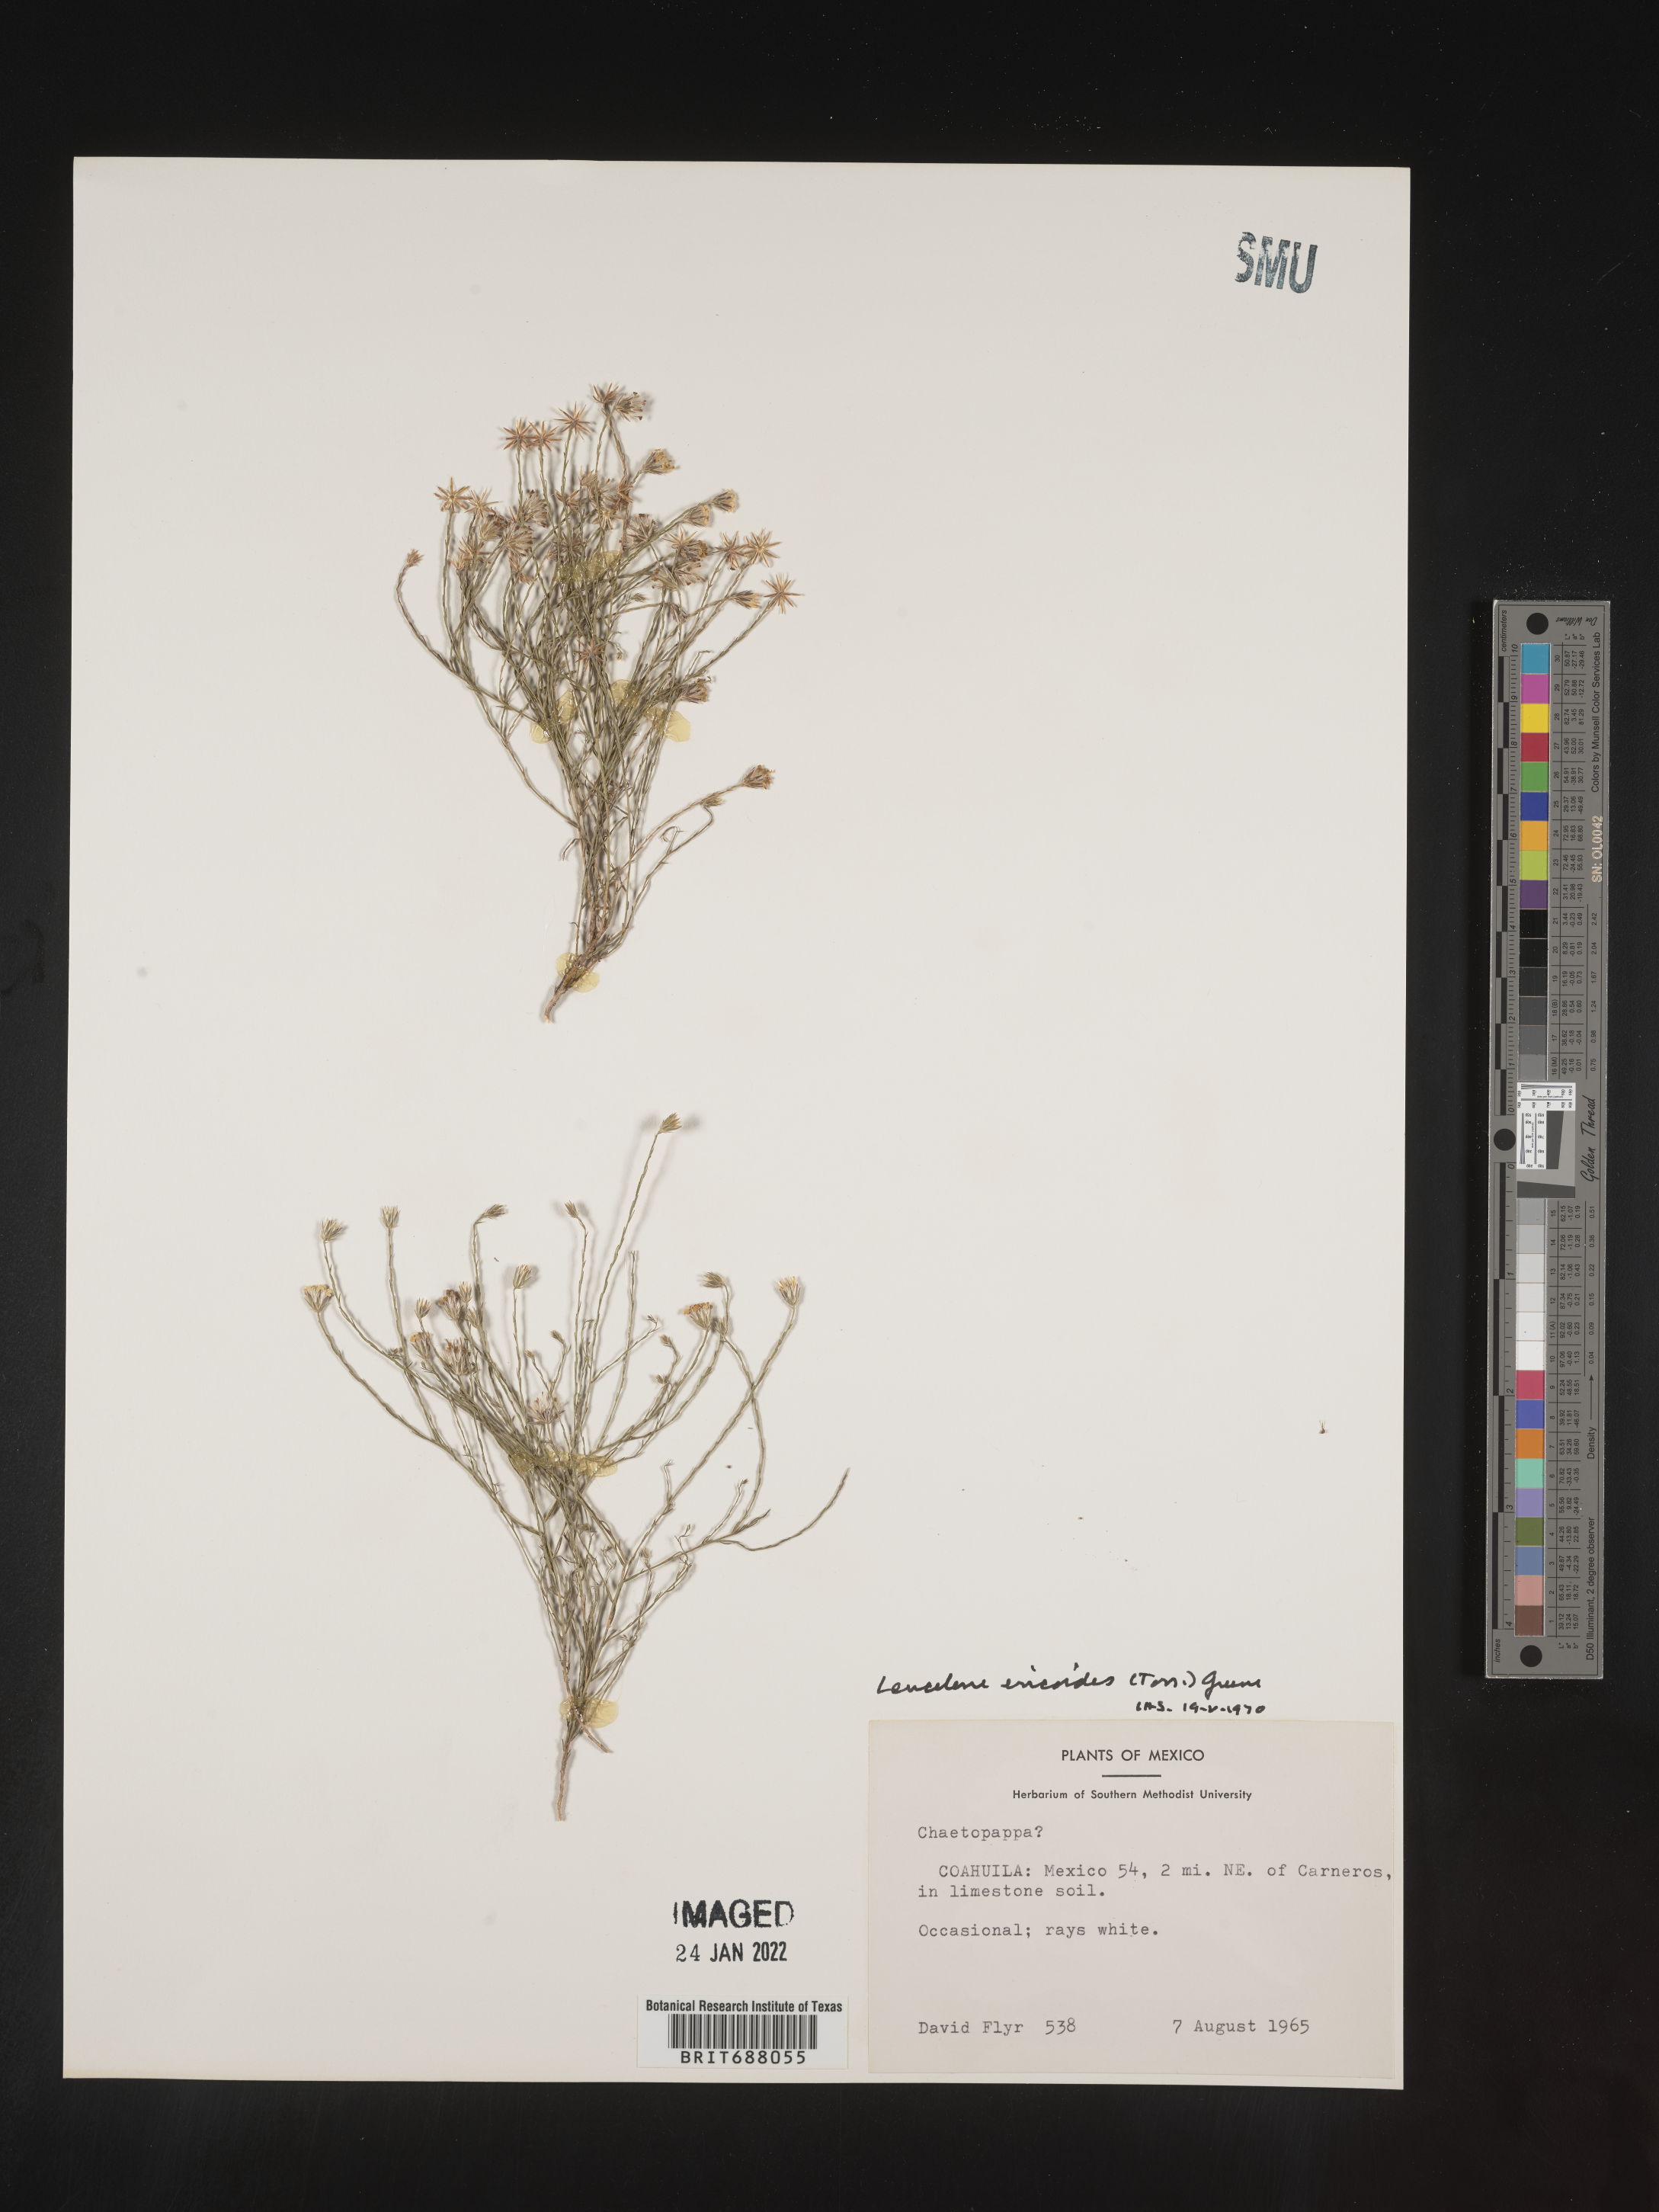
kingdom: Plantae
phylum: Tracheophyta
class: Magnoliopsida
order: Asterales
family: Asteraceae
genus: Chaetopappa
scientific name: Chaetopappa
